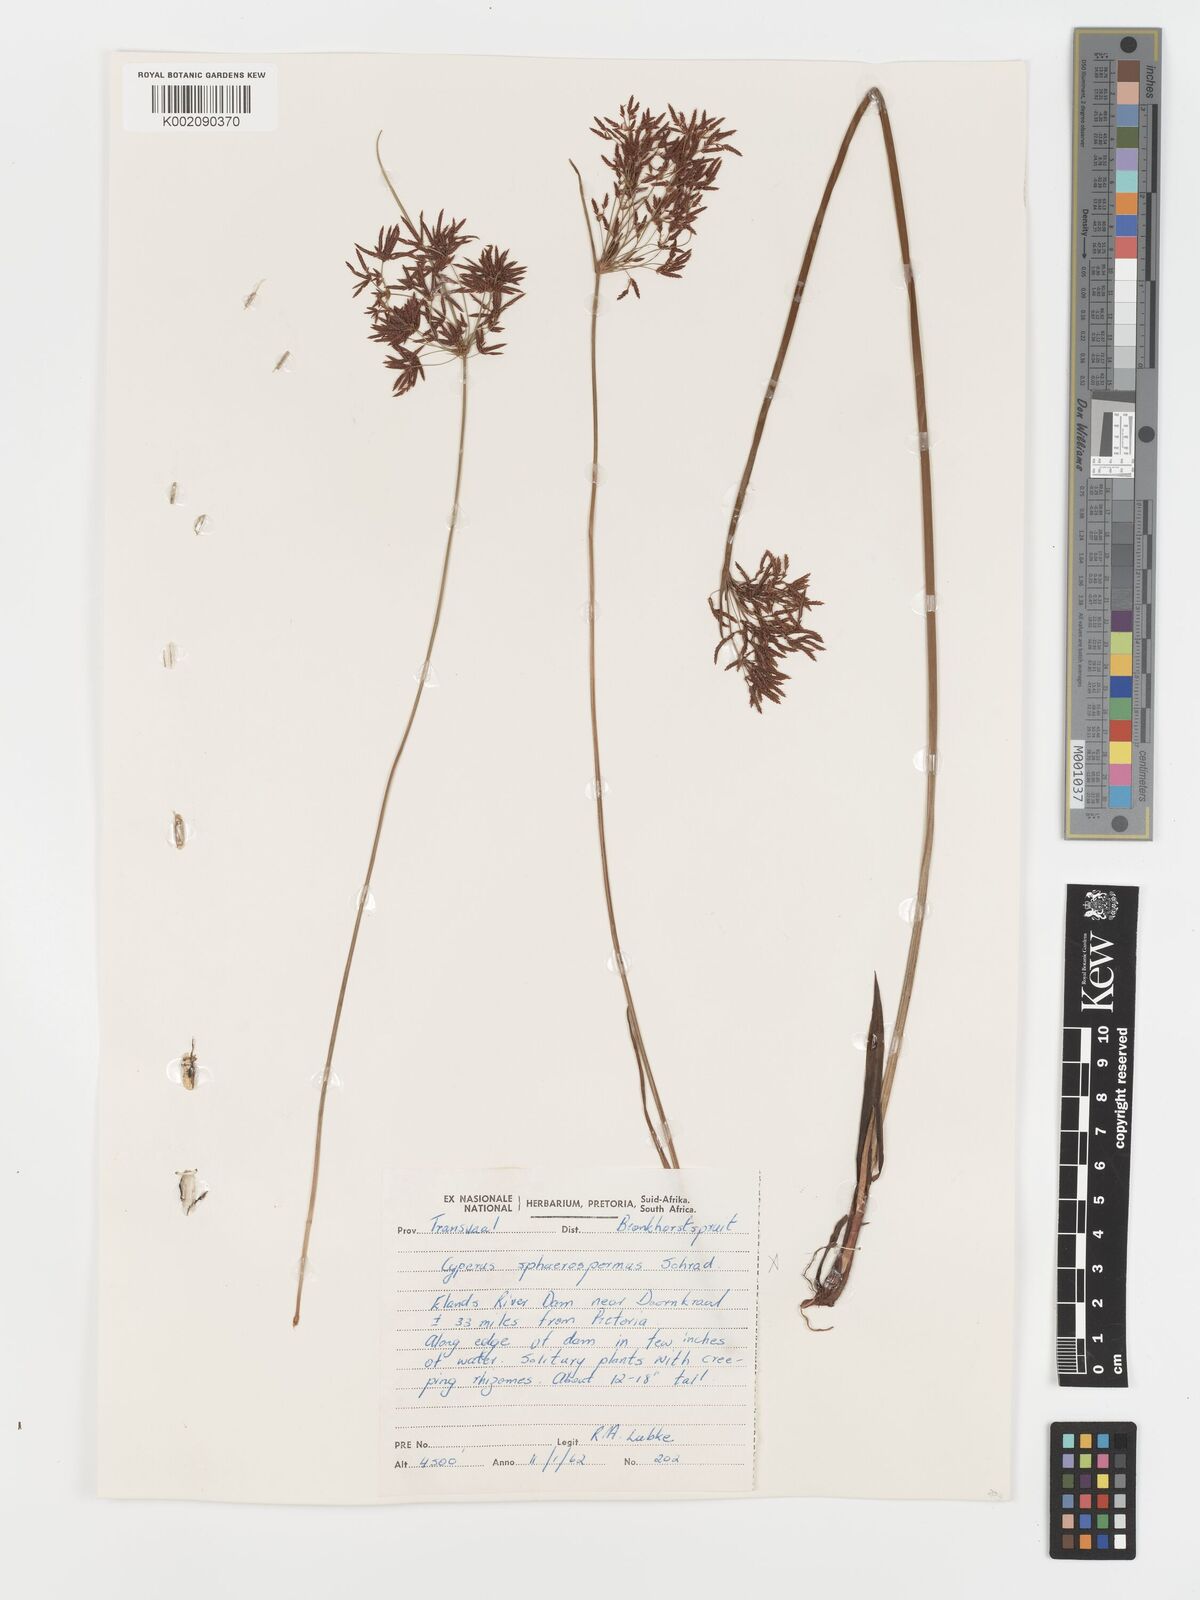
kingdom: Plantae
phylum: Tracheophyta
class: Liliopsida
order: Poales
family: Cyperaceae
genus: Cyperus
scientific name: Cyperus haspan
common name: Haspan flatsedge
